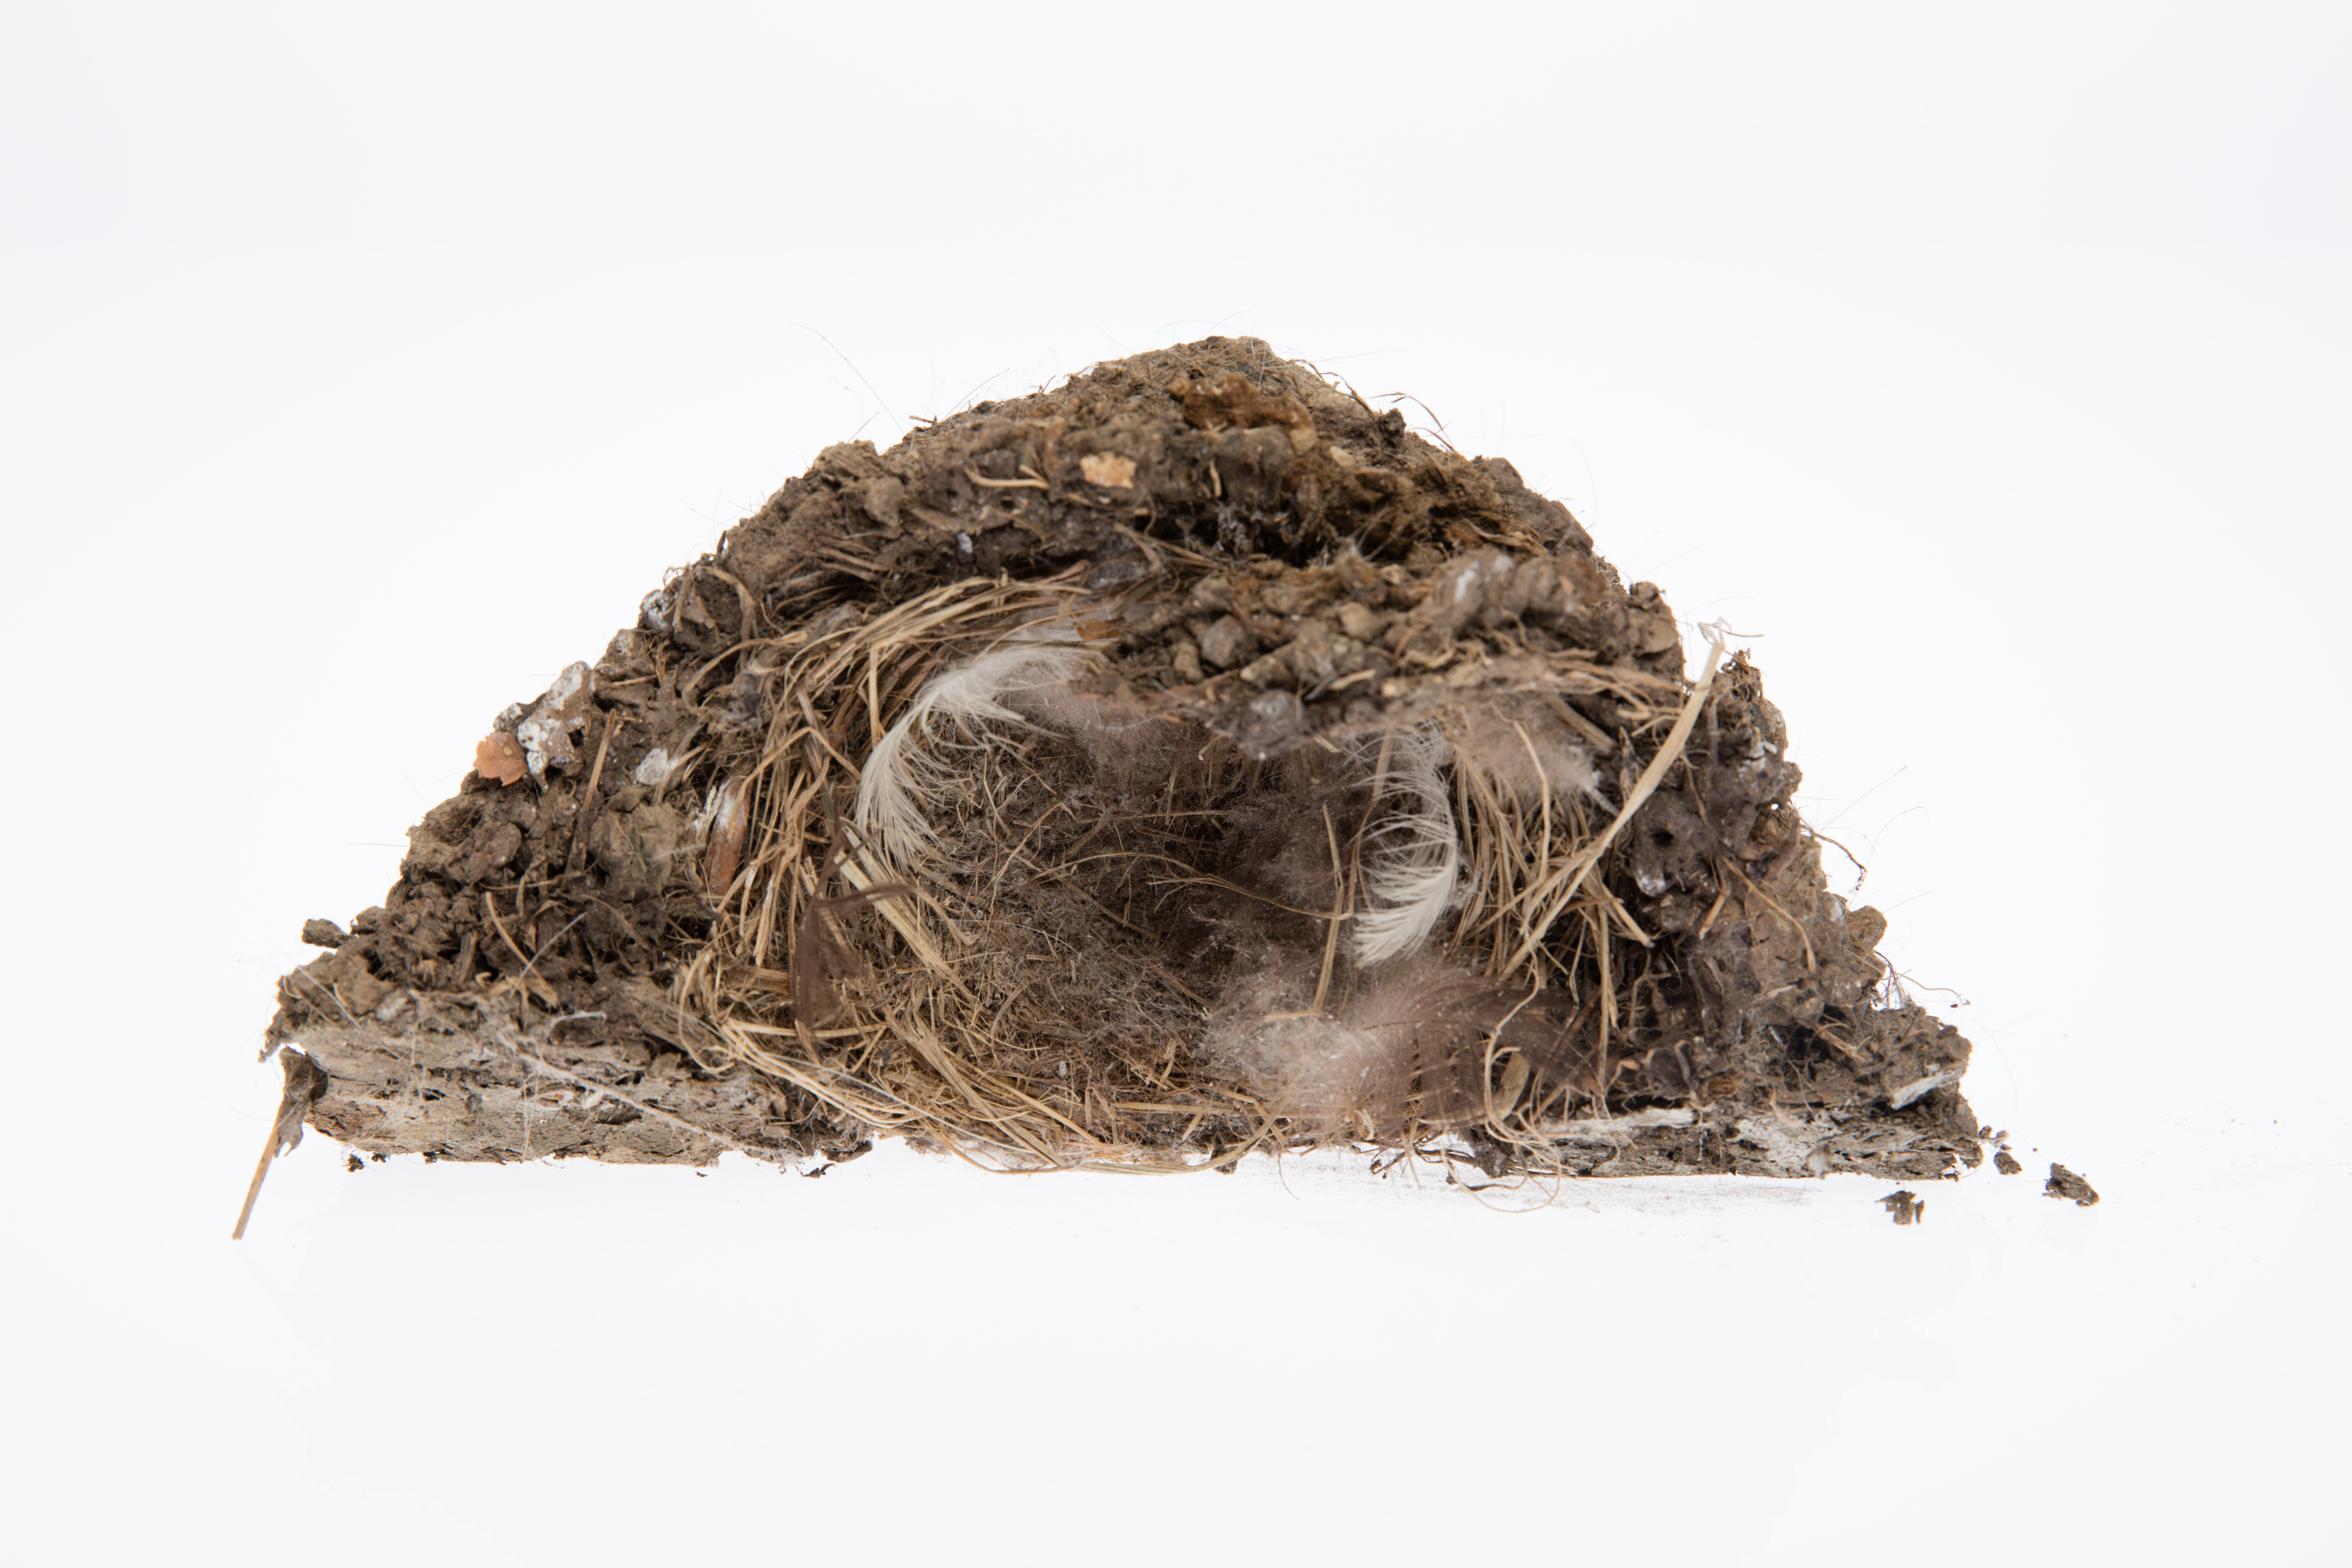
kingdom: Animalia
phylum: Chordata
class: Aves
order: Passeriformes
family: Hirundinidae
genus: Hirundo
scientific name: Hirundo neoxena
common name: Welcome swallow
